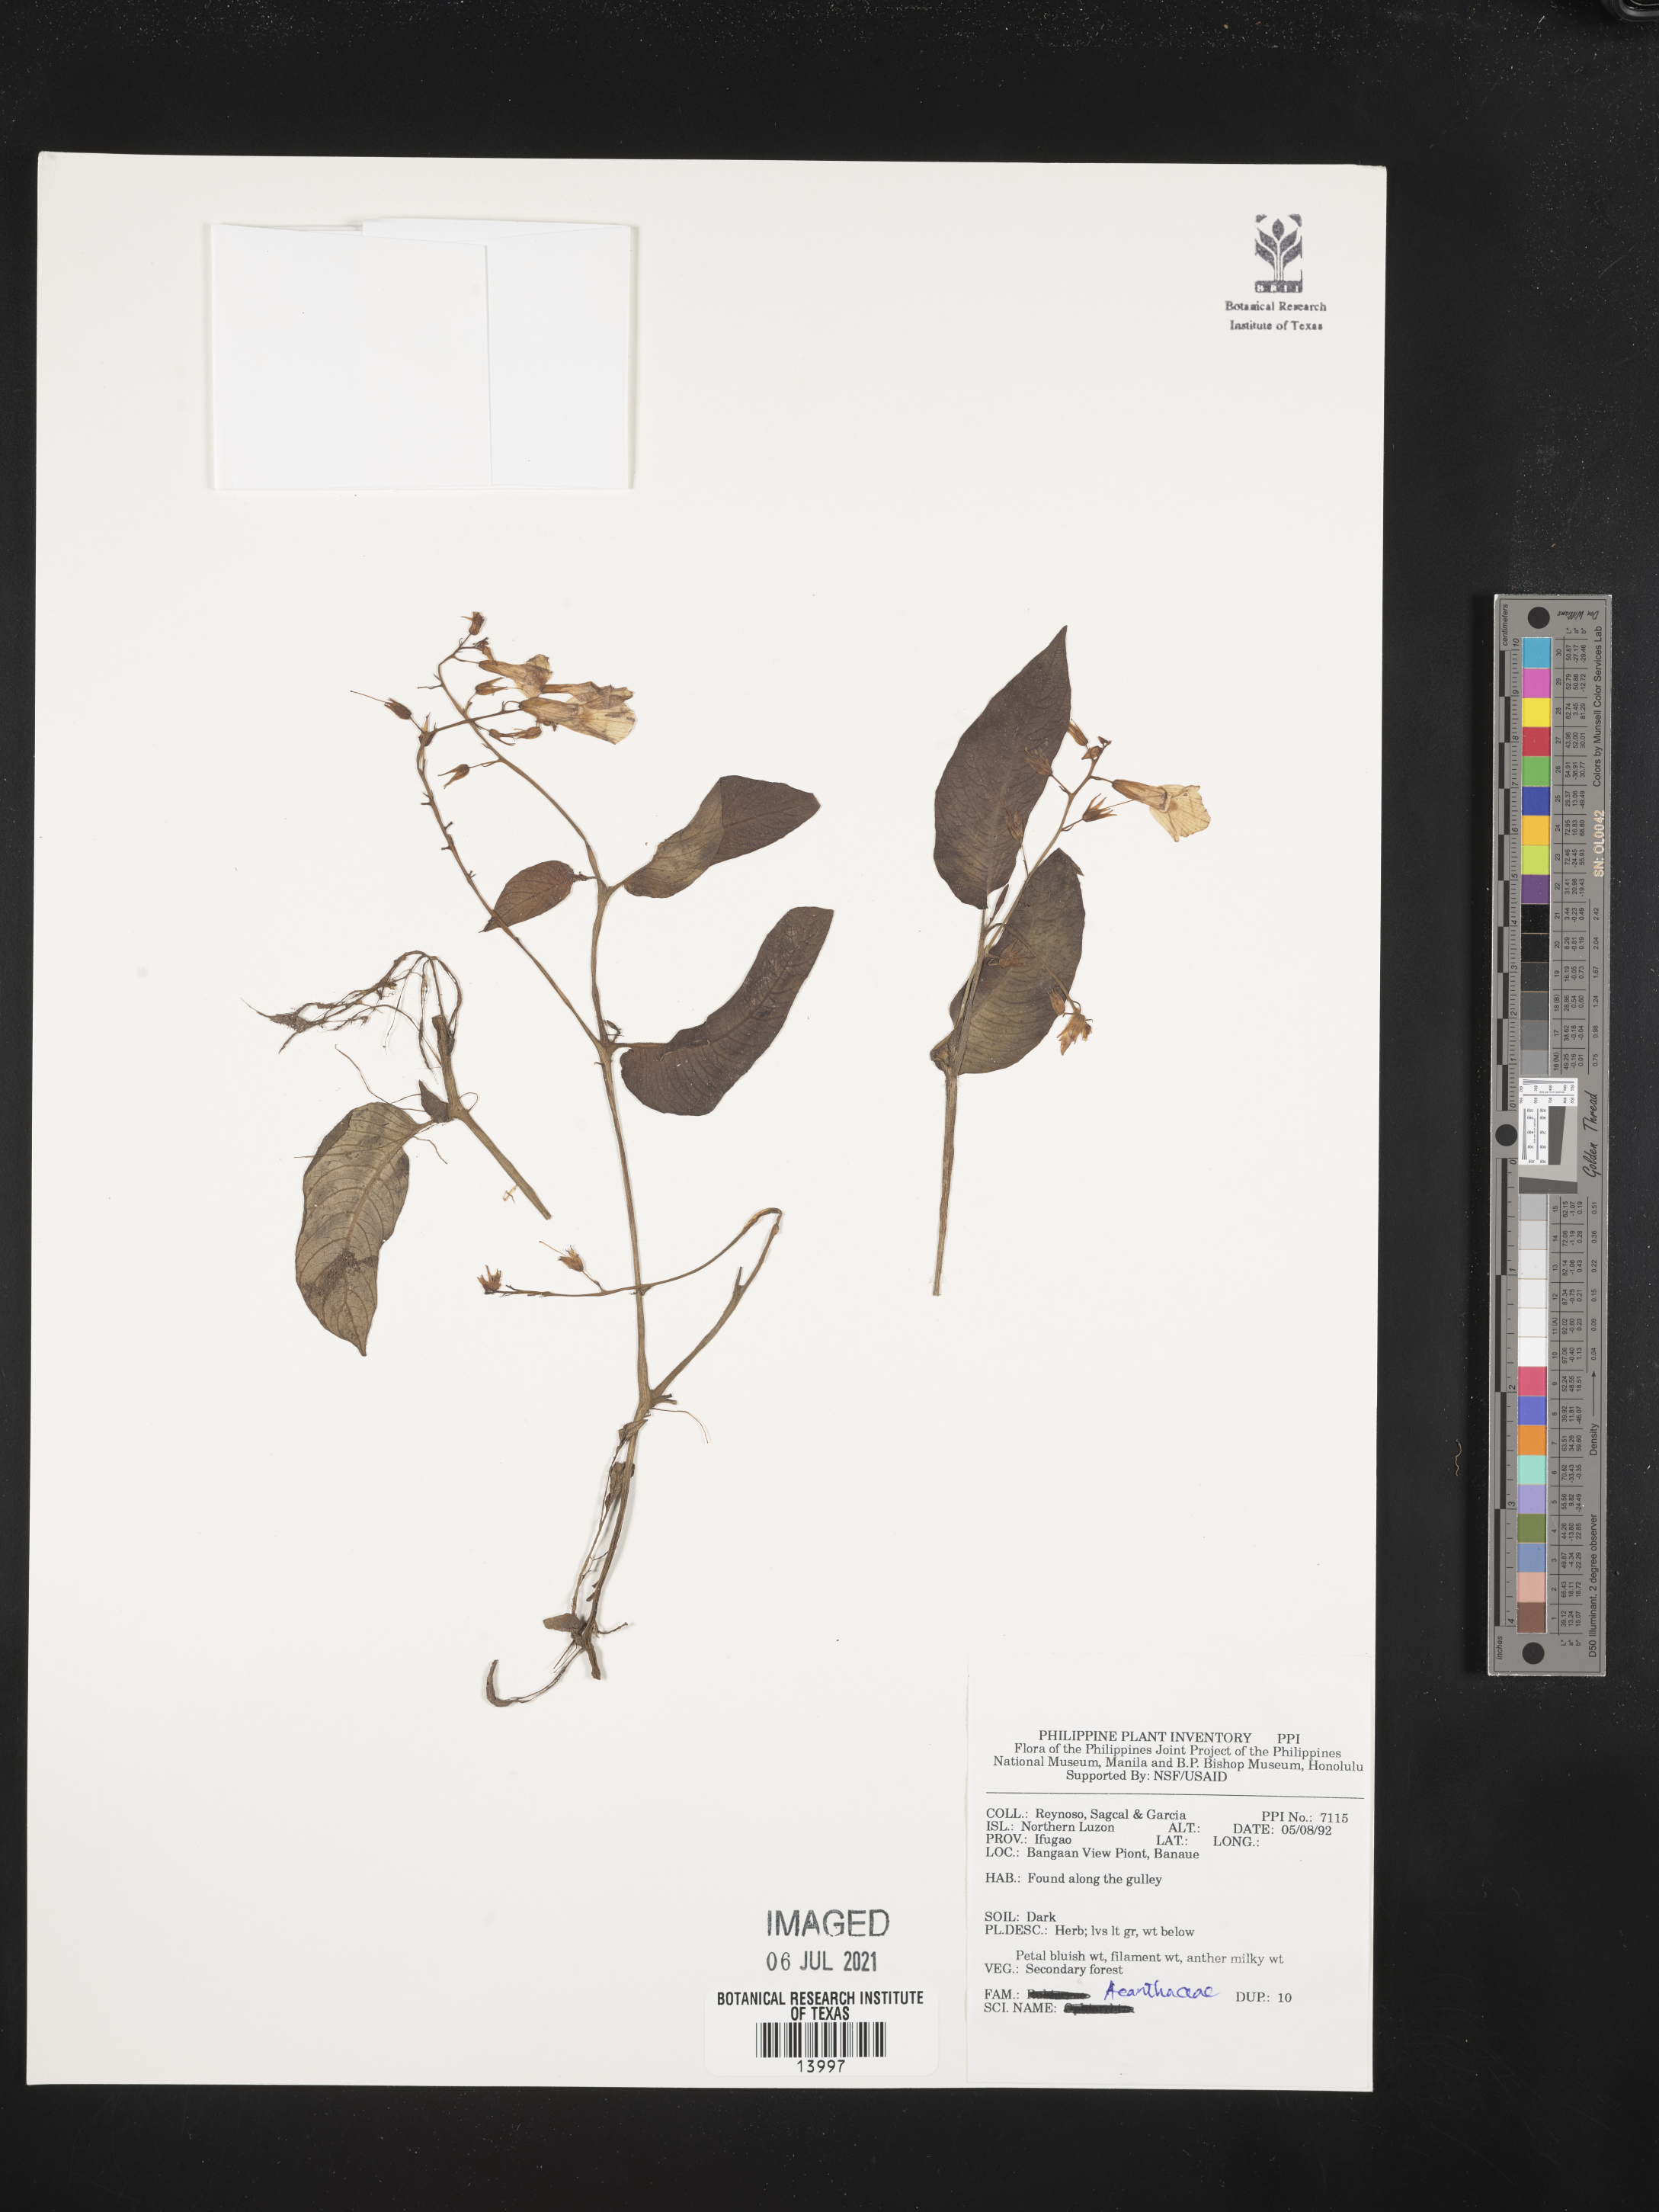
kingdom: Plantae
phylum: Tracheophyta
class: Magnoliopsida
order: Lamiales
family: Acanthaceae
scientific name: Acanthaceae
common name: Acanthaceae
